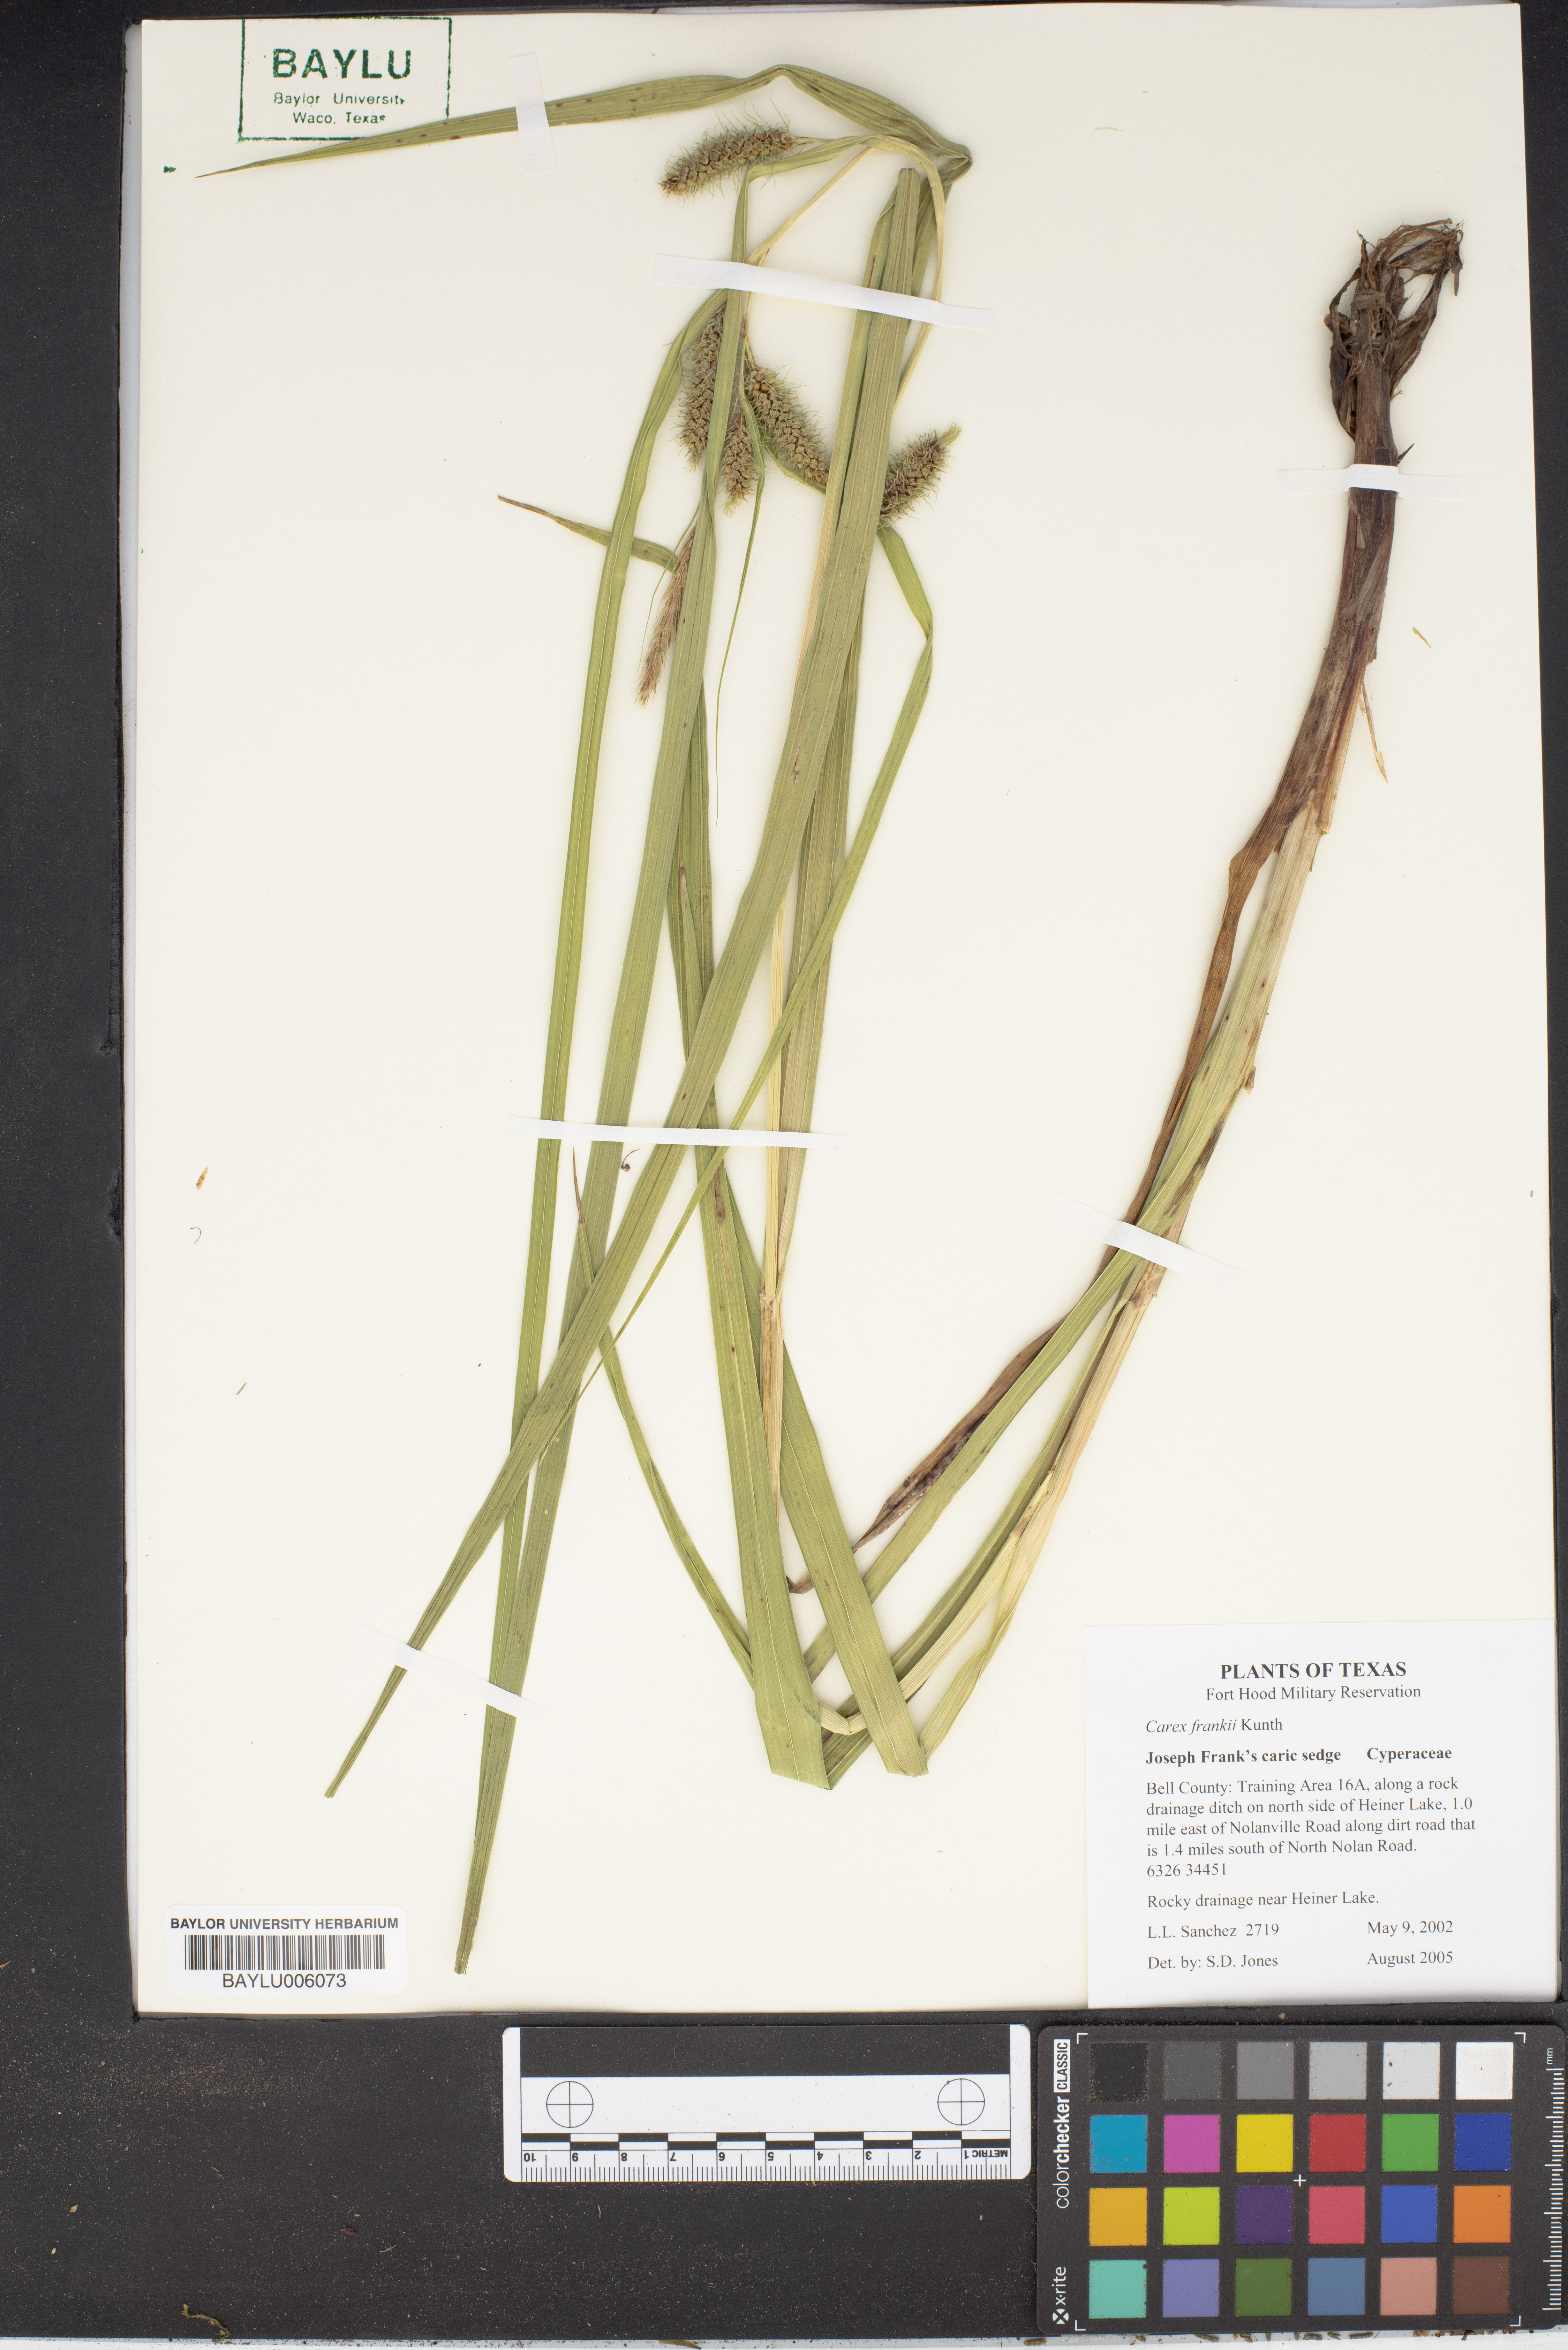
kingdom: Plantae
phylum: Tracheophyta
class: Liliopsida
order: Poales
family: Cyperaceae
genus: Carex
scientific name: Carex frankii
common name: Frank's sedge
